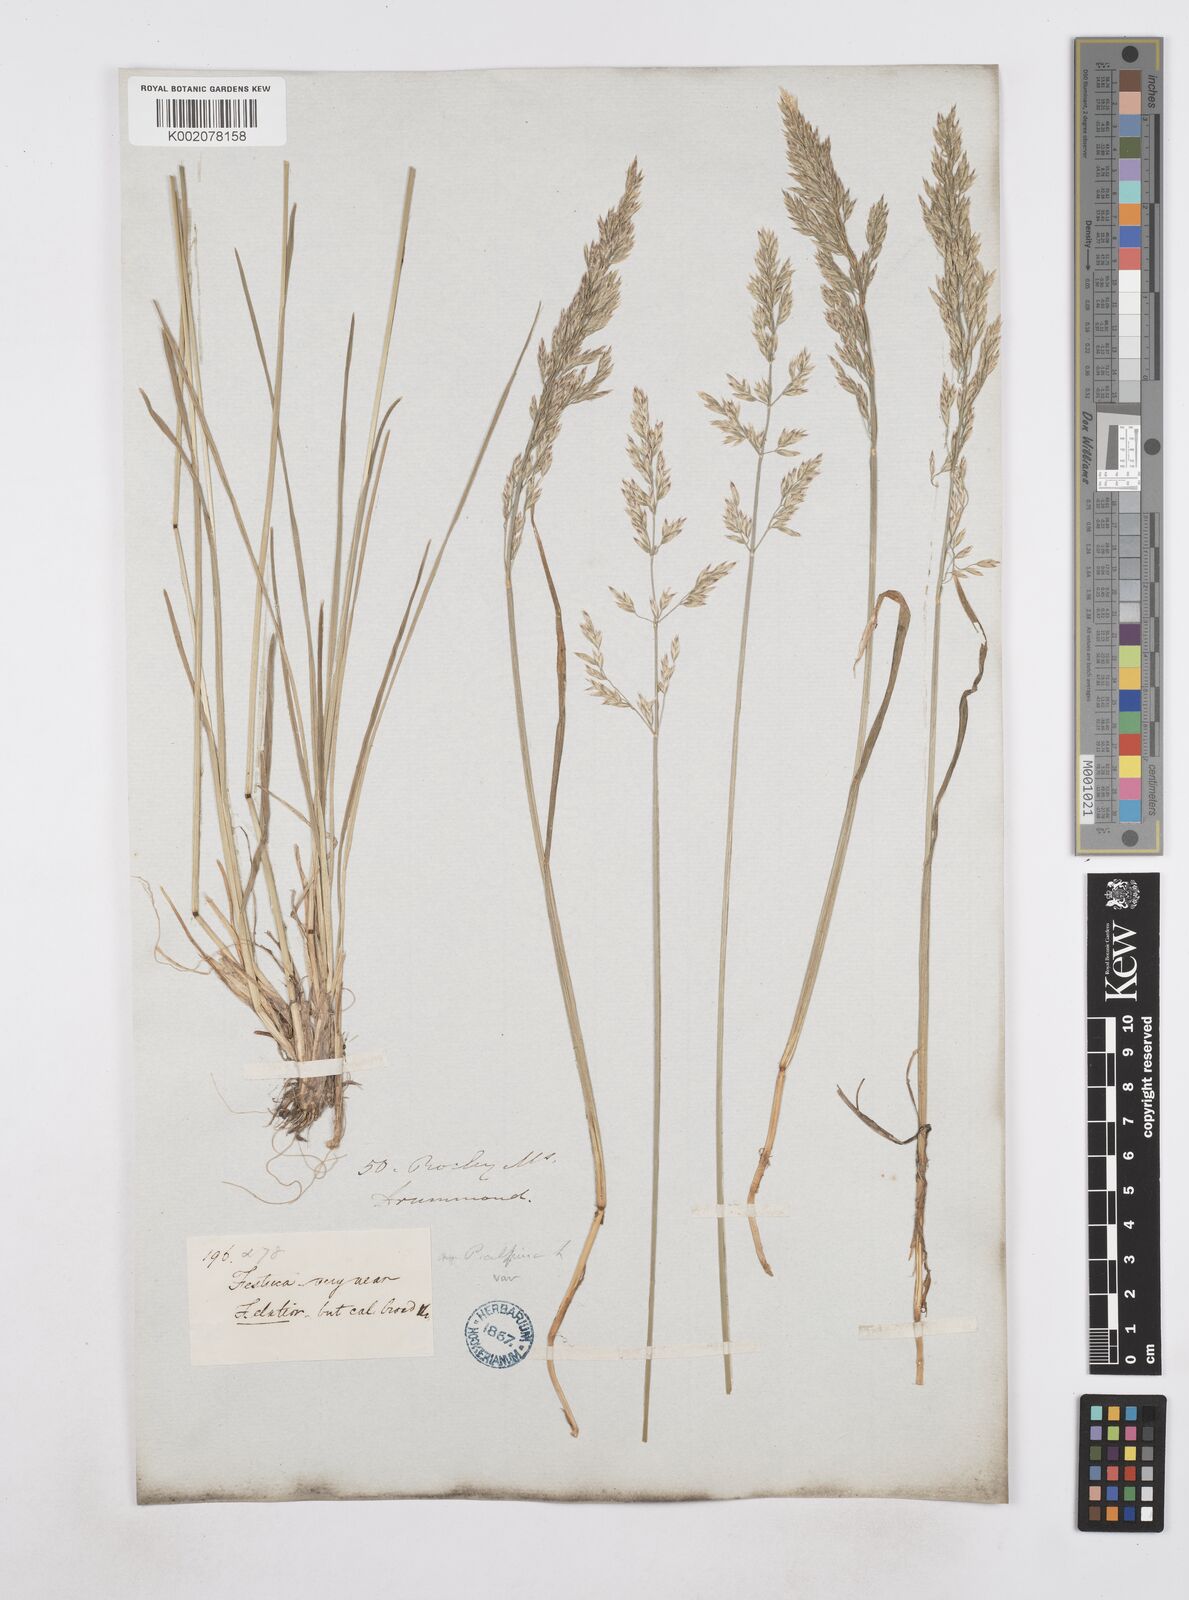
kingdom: Plantae
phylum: Tracheophyta
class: Liliopsida
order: Poales
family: Poaceae
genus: Poa
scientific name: Poa
